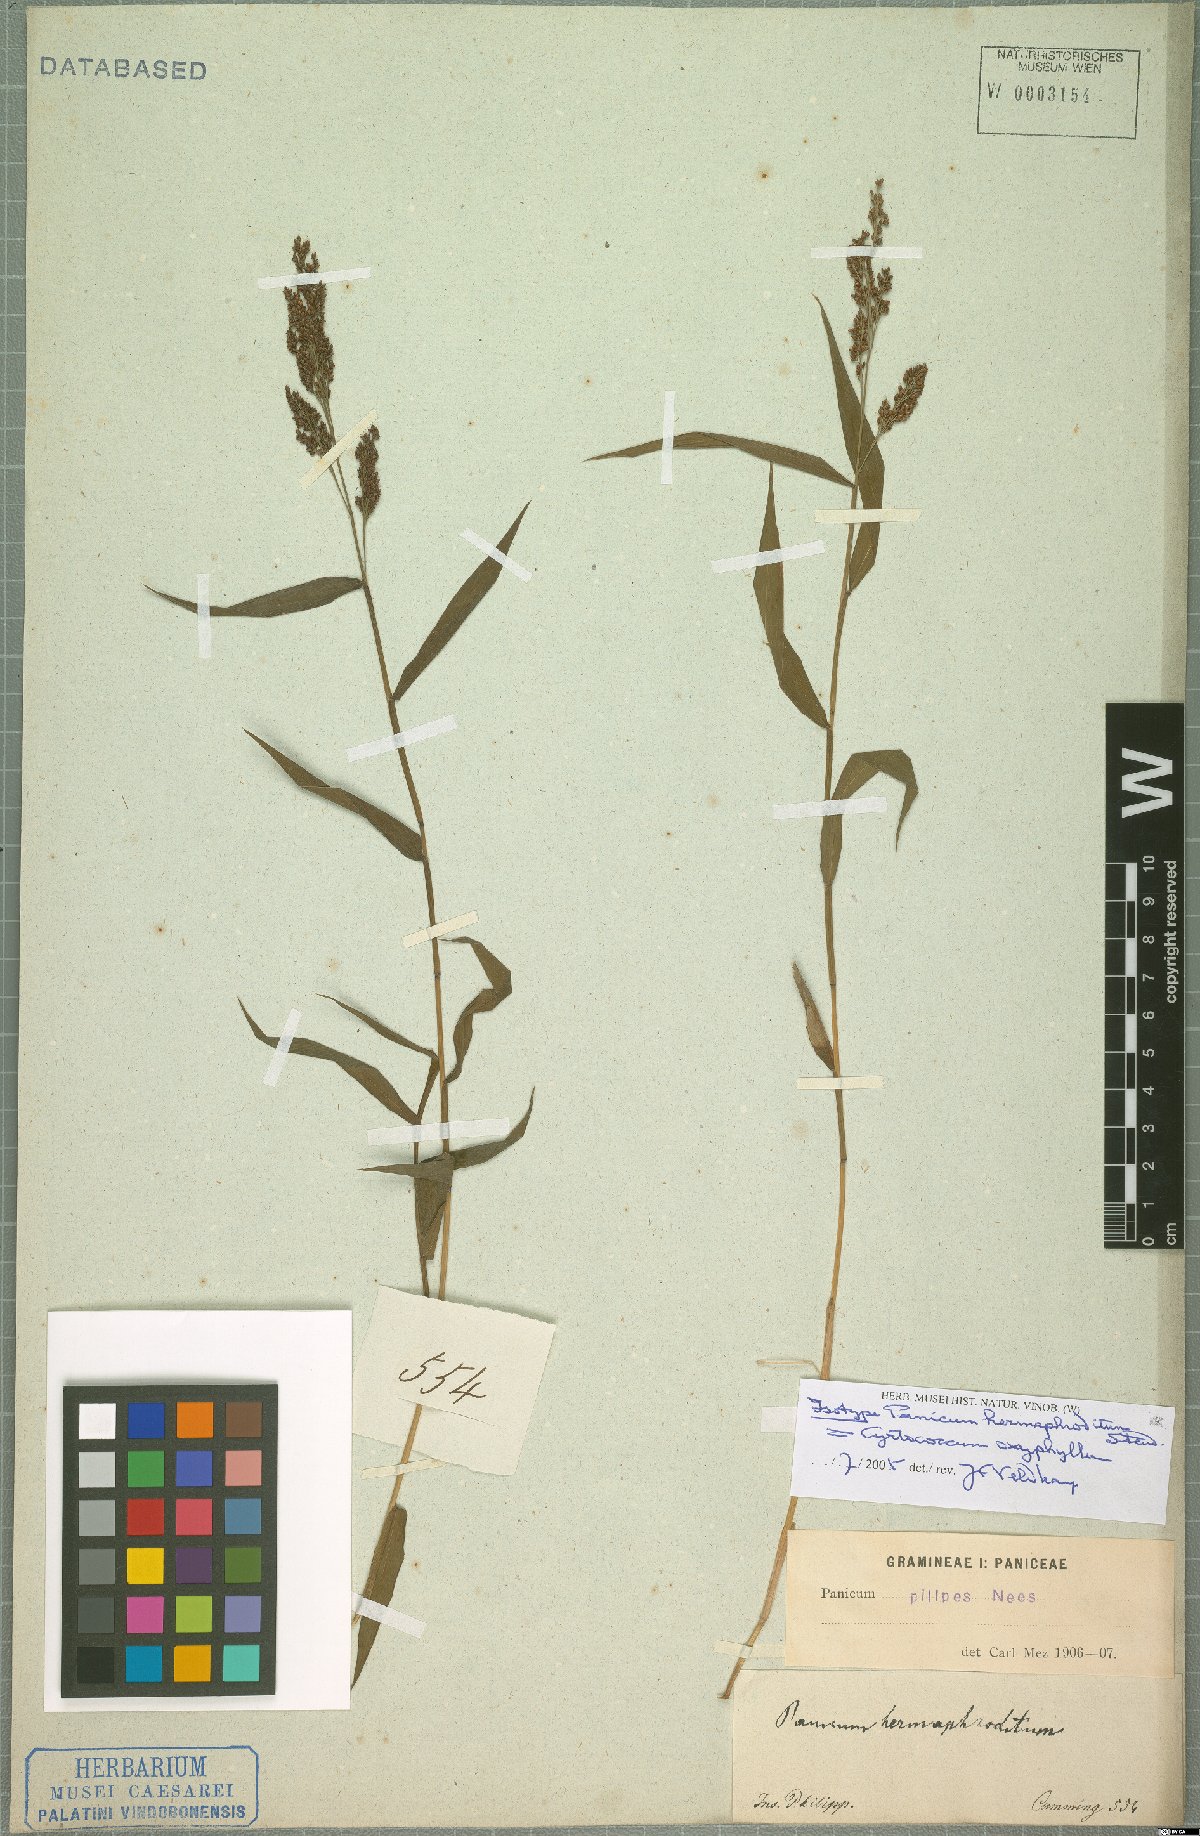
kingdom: Plantae
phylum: Tracheophyta
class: Liliopsida
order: Poales
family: Poaceae
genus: Cyrtococcum
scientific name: Cyrtococcum oxyphyllum
